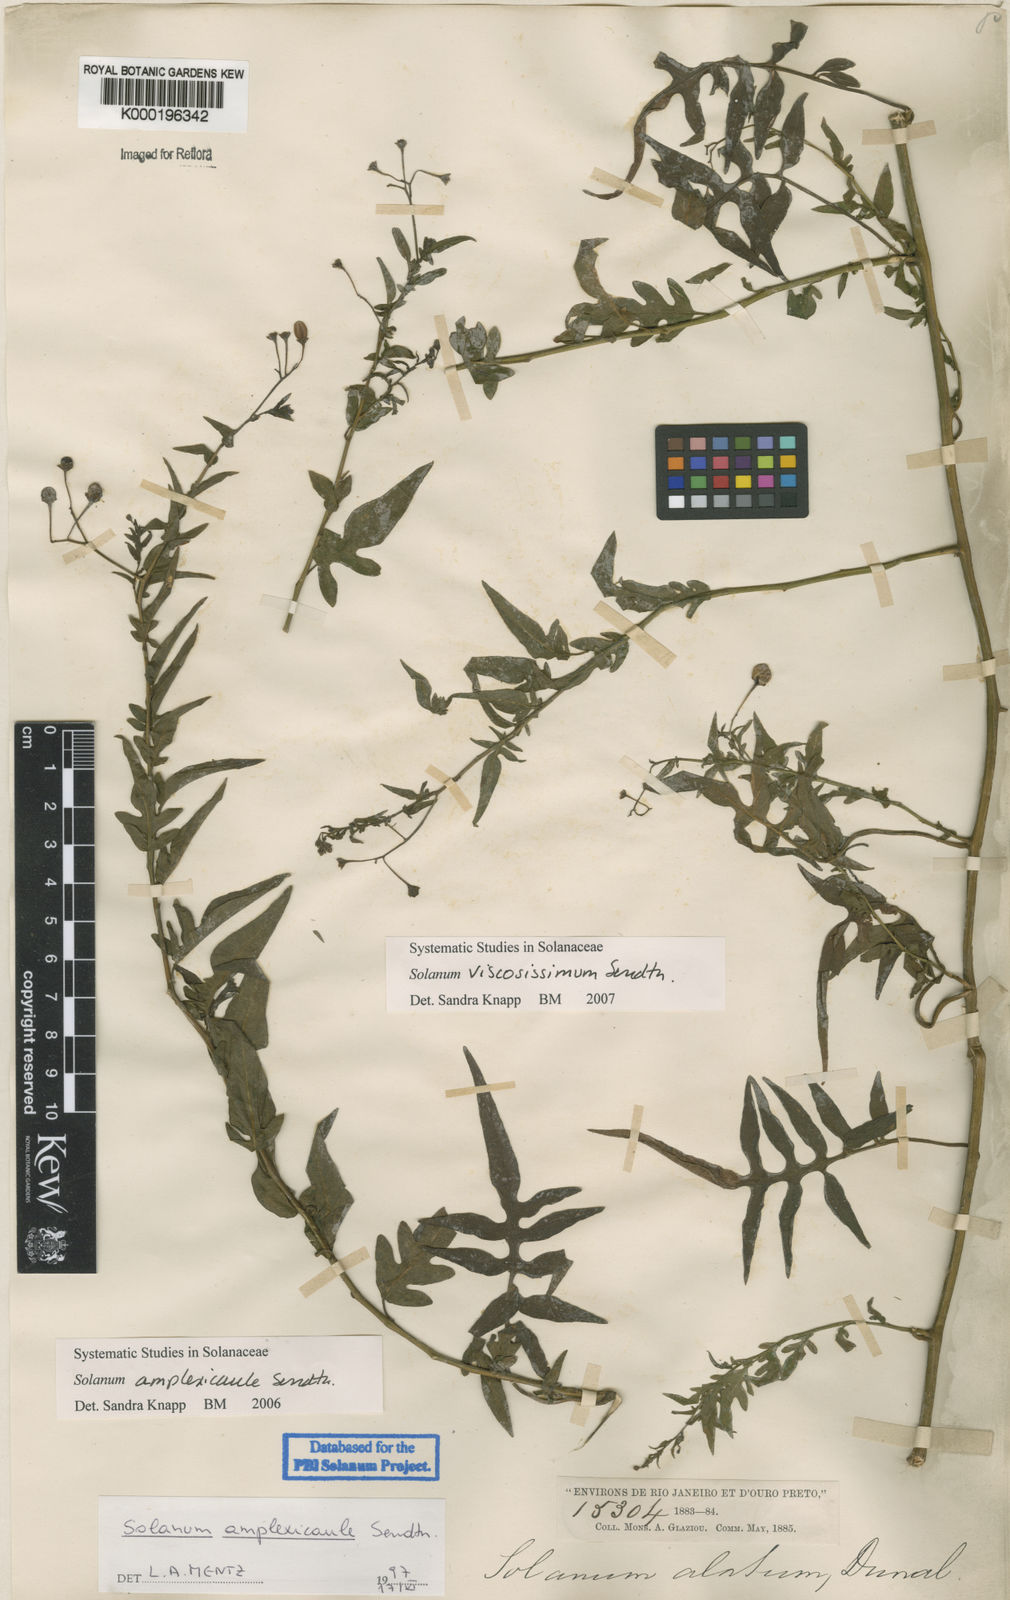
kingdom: Plantae
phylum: Tracheophyta
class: Magnoliopsida
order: Solanales
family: Solanaceae
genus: Solanum
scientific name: Solanum viscosissimum
